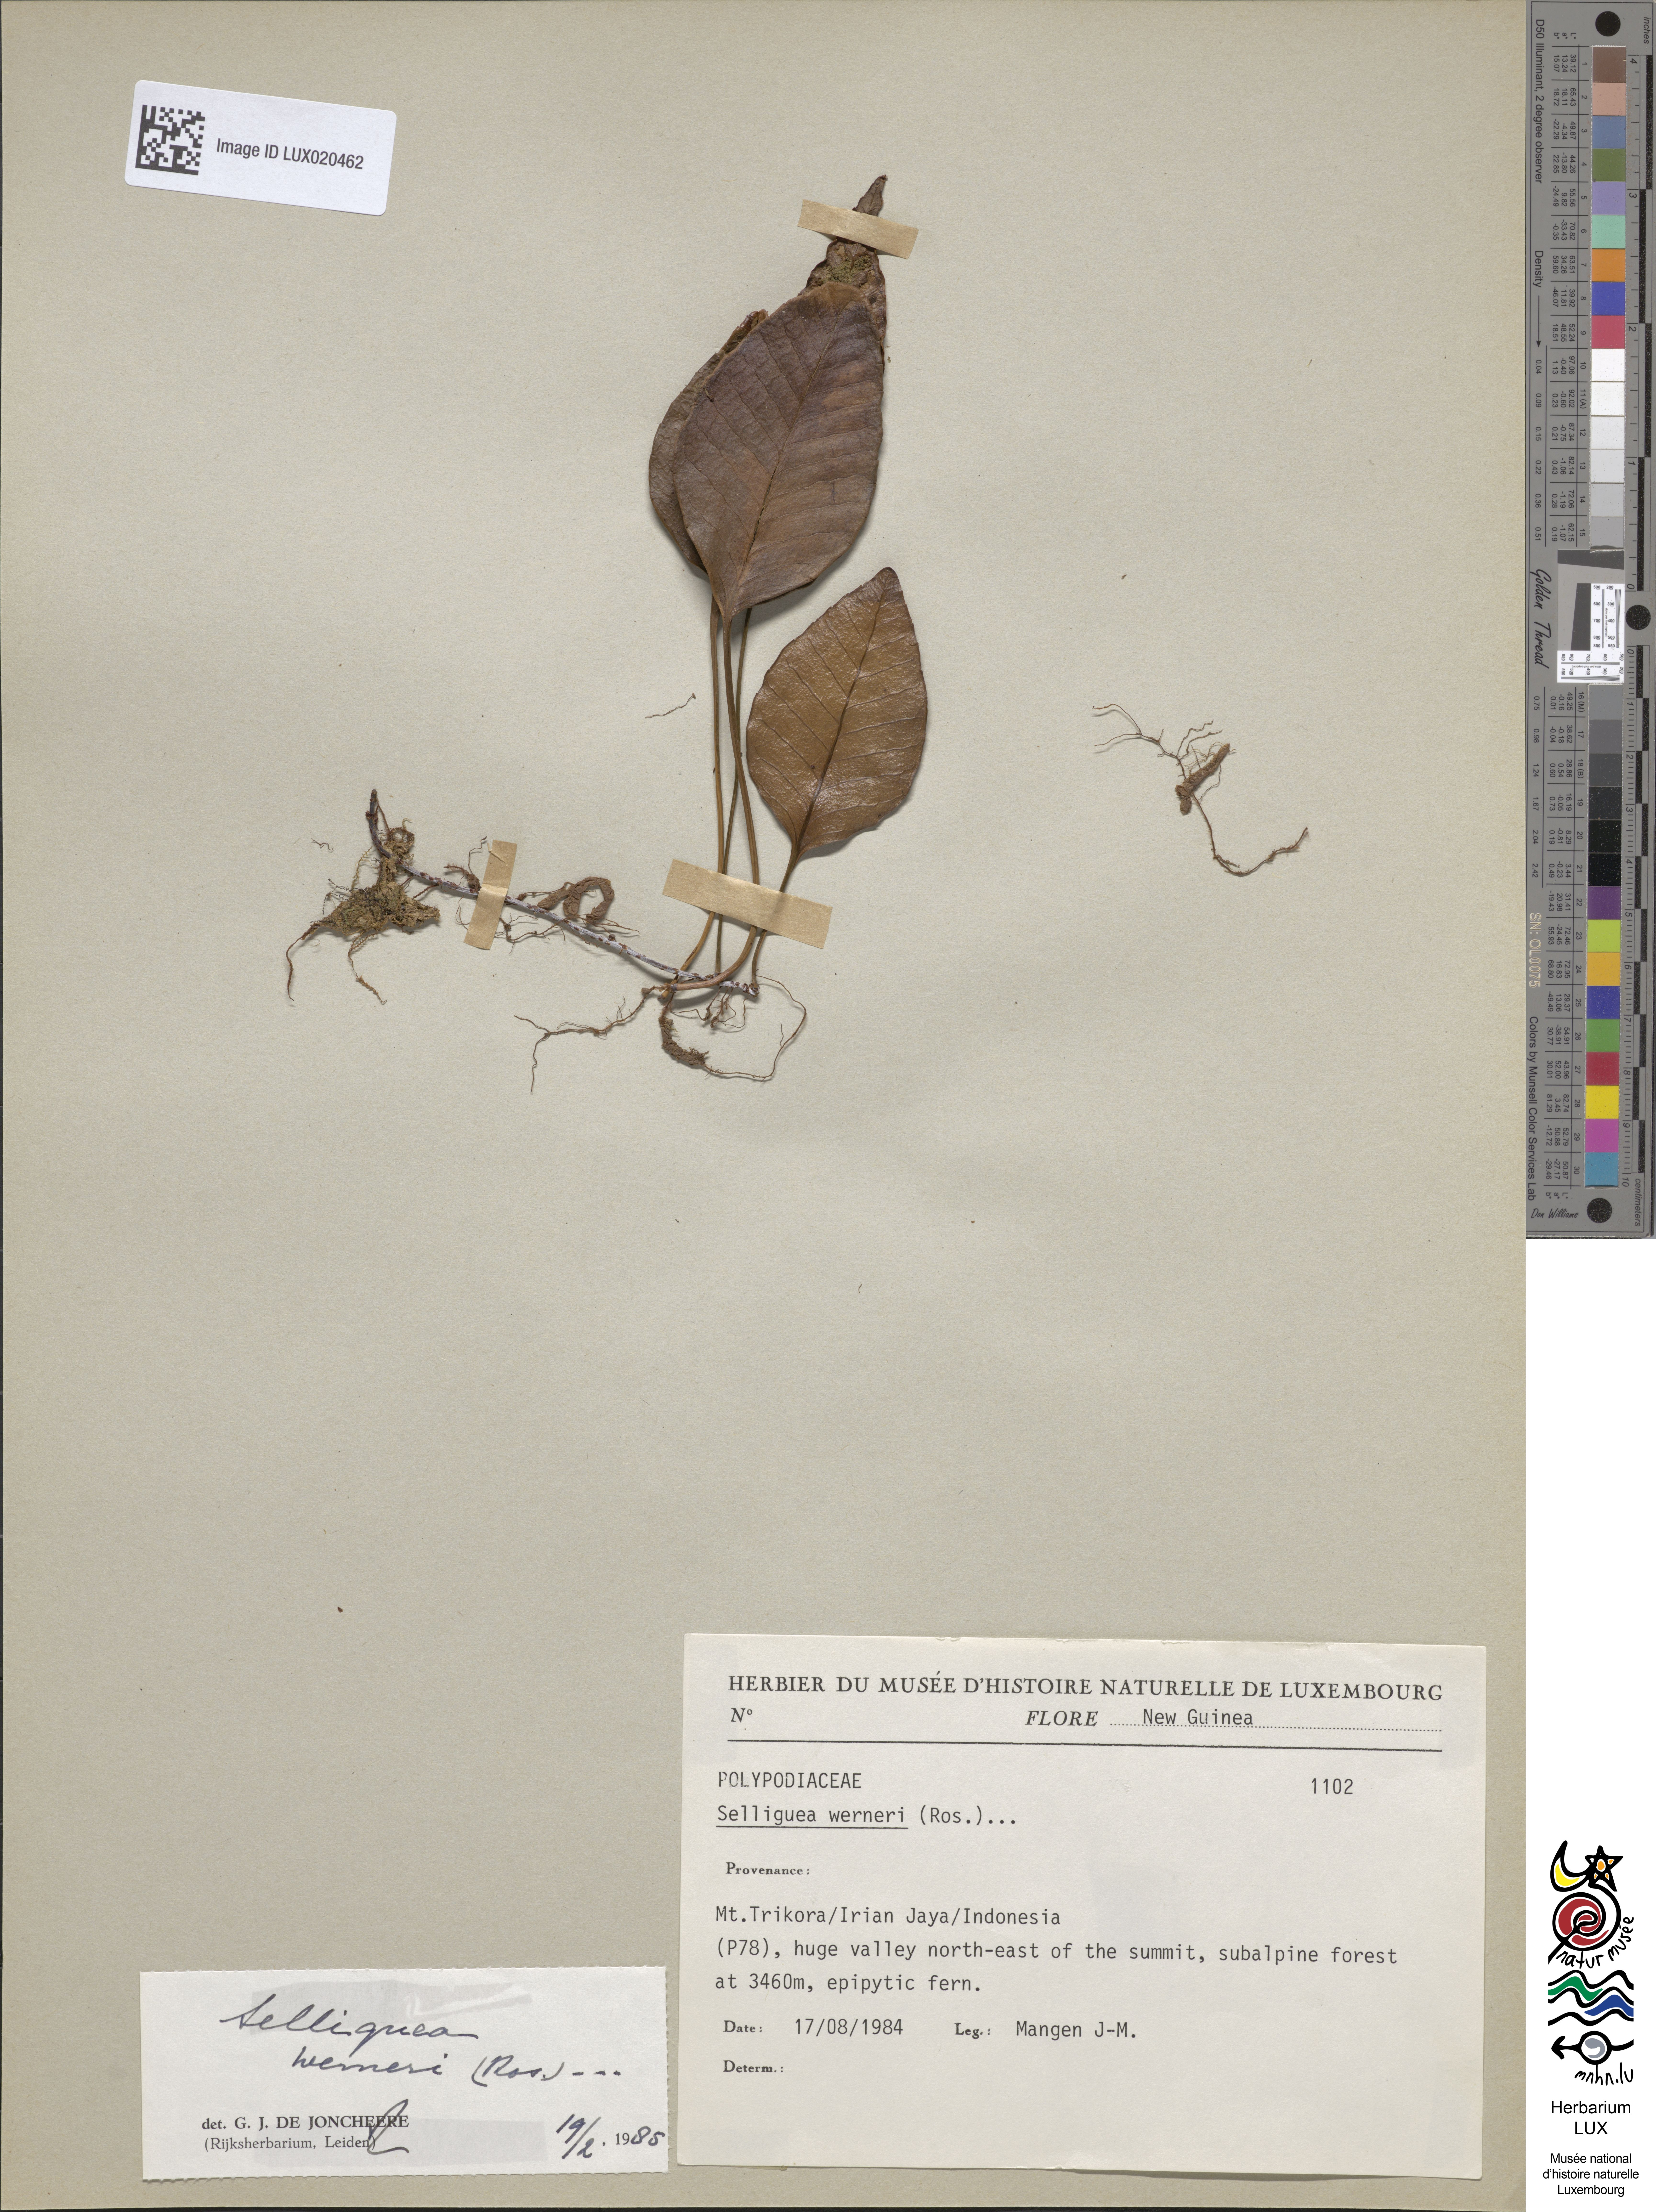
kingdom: Plantae
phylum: Tracheophyta
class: Polypodiopsida
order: Polypodiales
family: Polypodiaceae
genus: Selliguea
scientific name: Selliguea plantaginea
